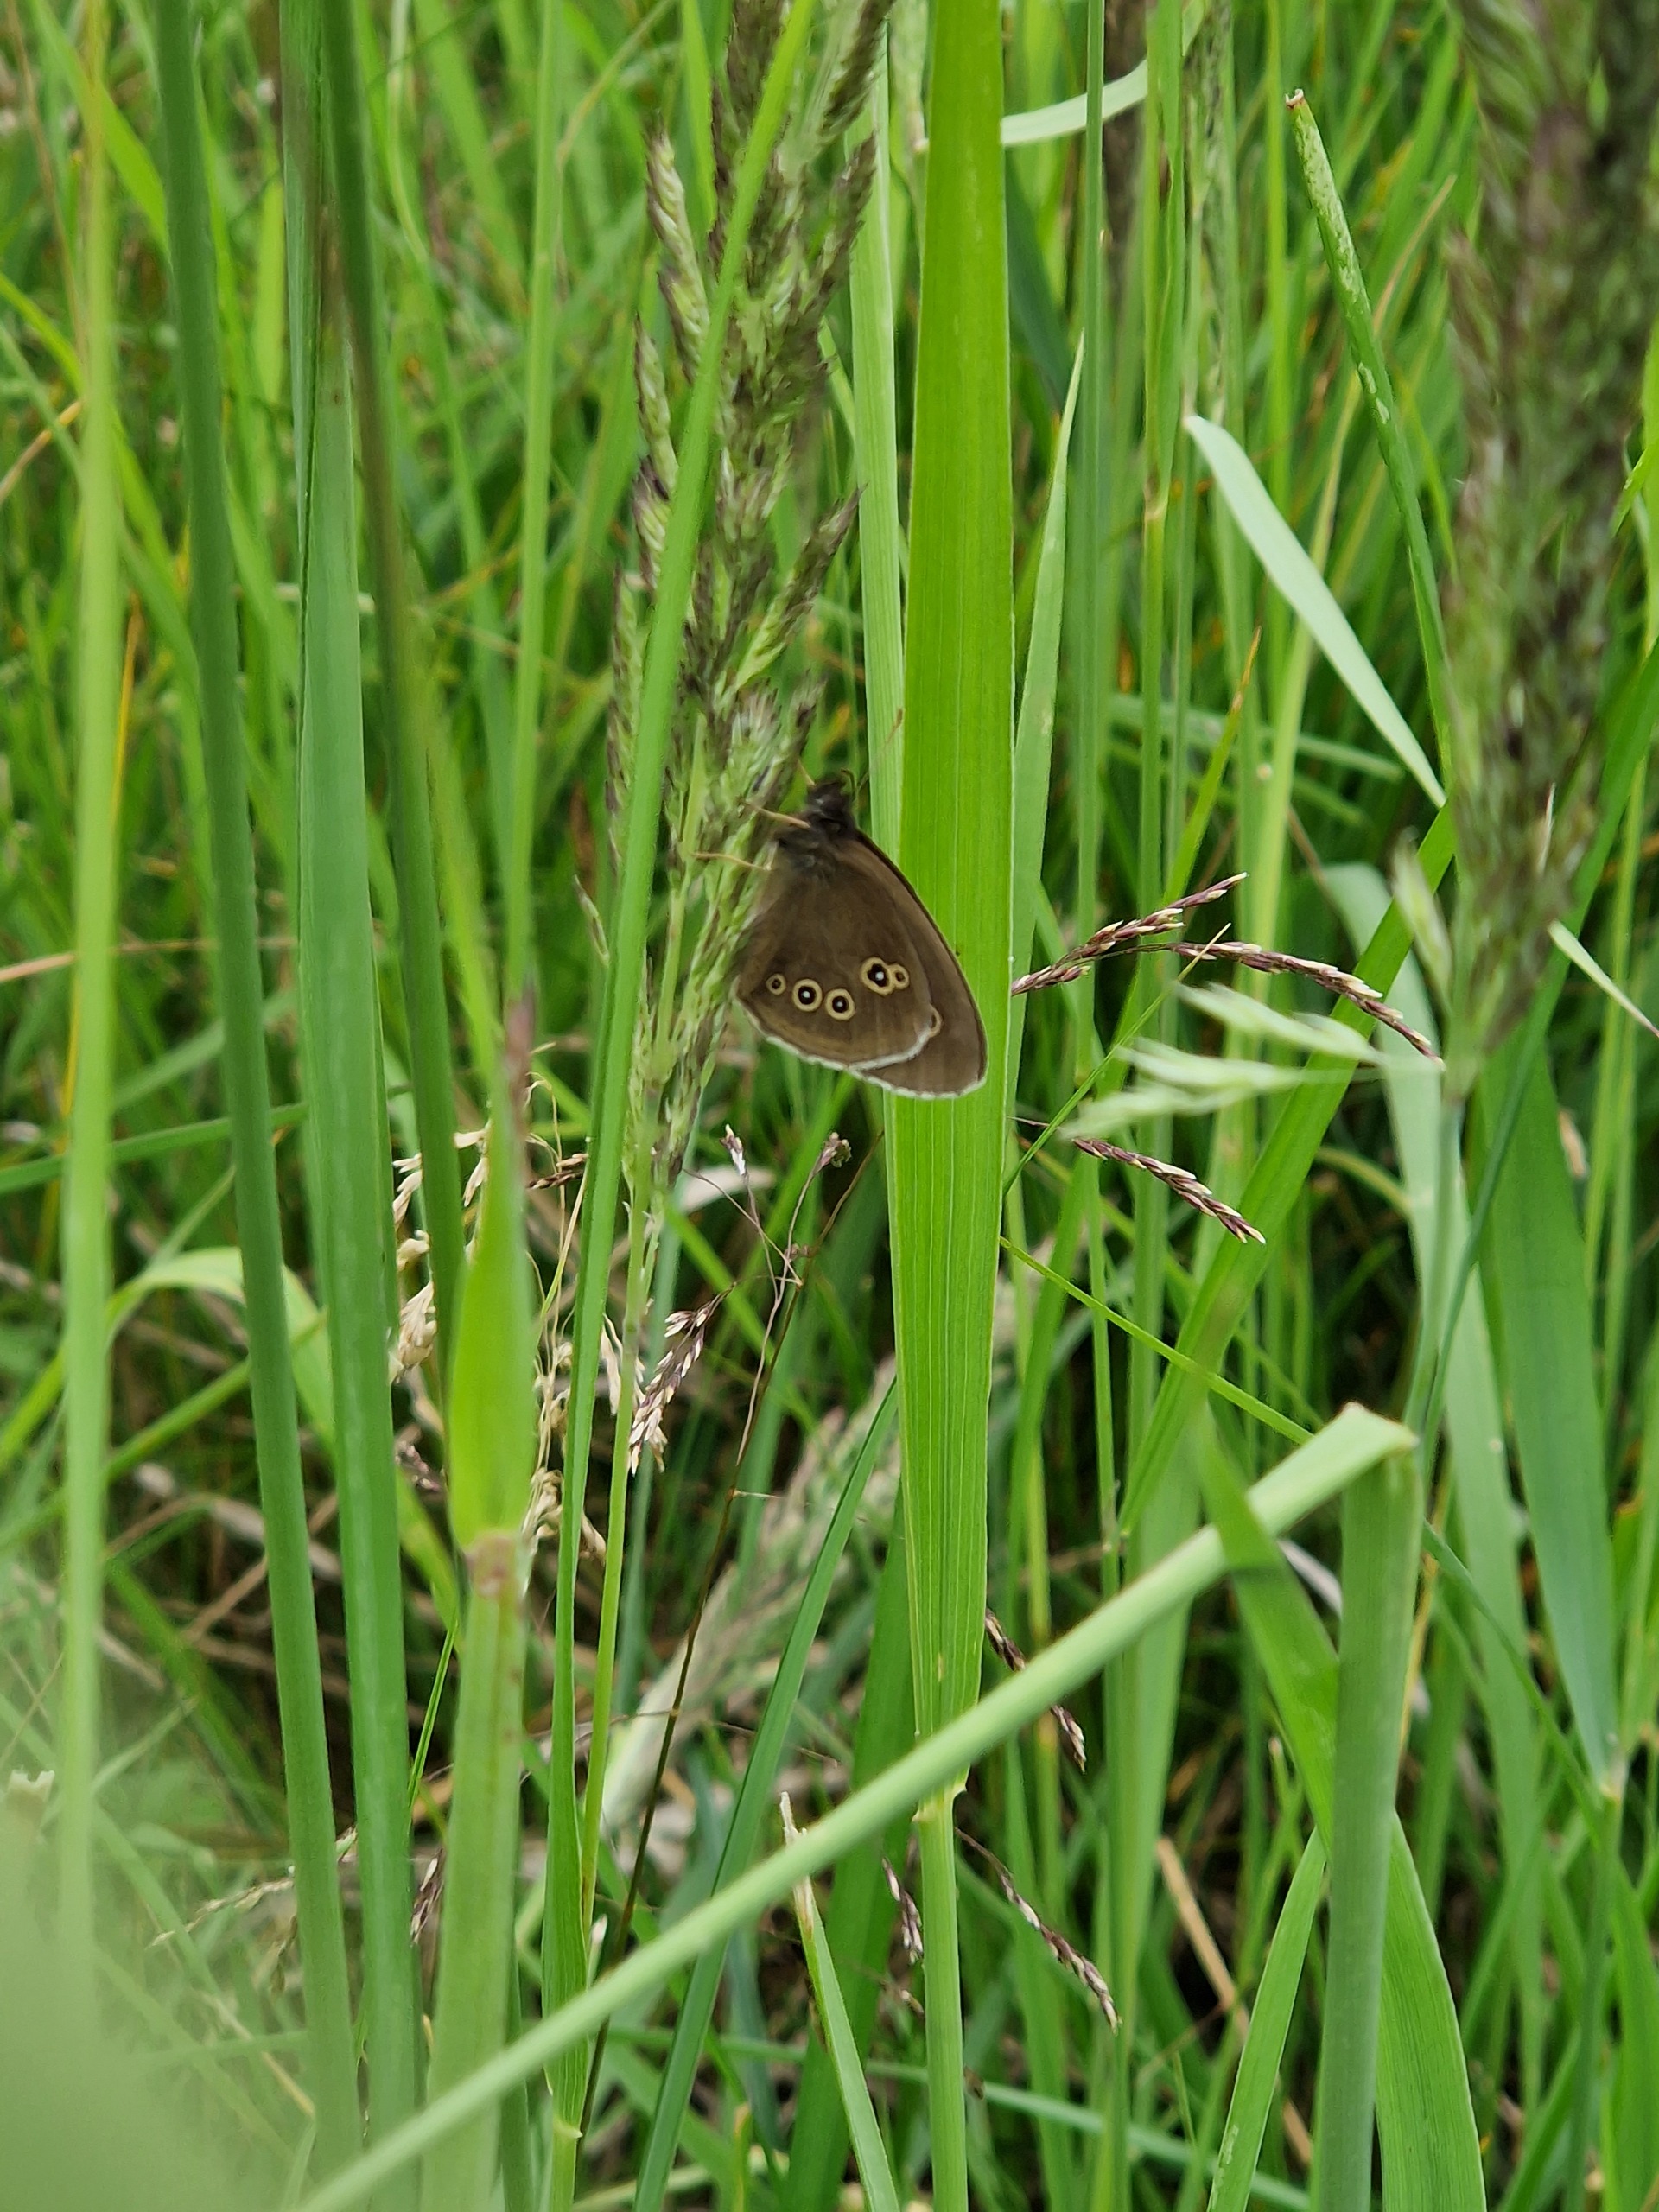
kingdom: Animalia
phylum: Arthropoda
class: Insecta
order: Lepidoptera
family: Nymphalidae
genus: Aphantopus
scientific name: Aphantopus hyperantus
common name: Engrandøje
